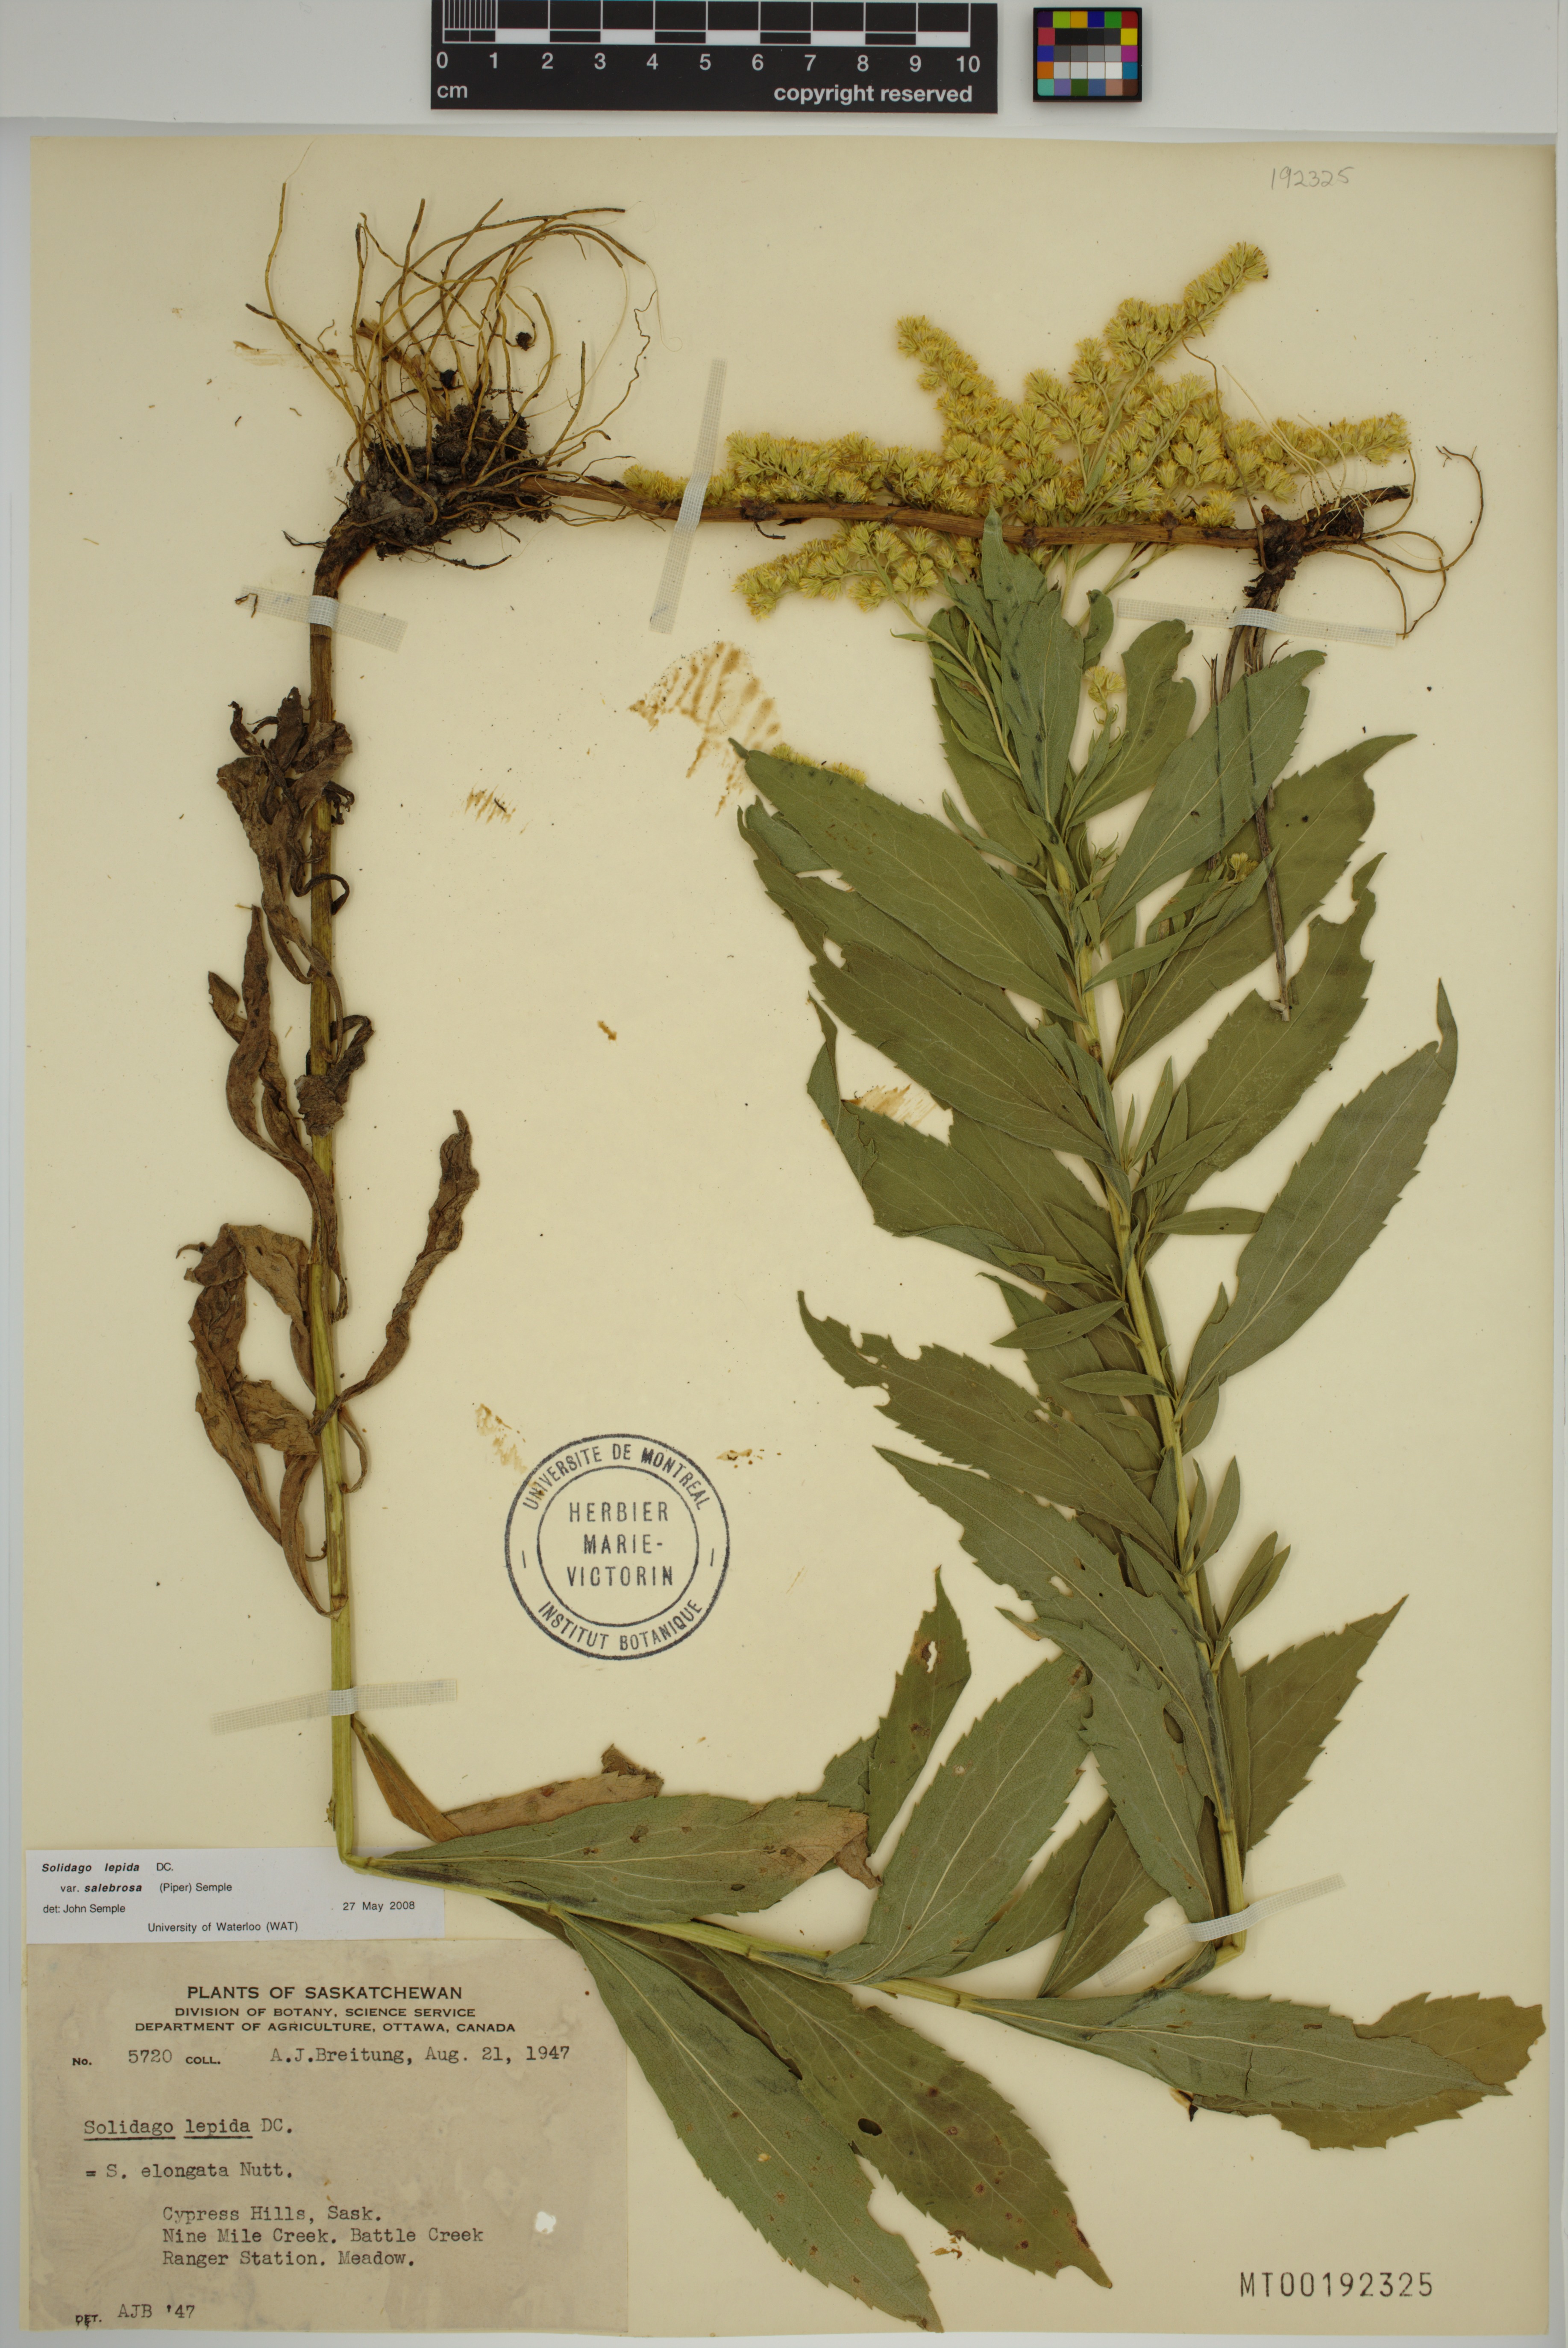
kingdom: Plantae
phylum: Tracheophyta
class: Magnoliopsida
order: Asterales
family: Asteraceae
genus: Solidago
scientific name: Solidago lepida
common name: Western canada goldenrod
